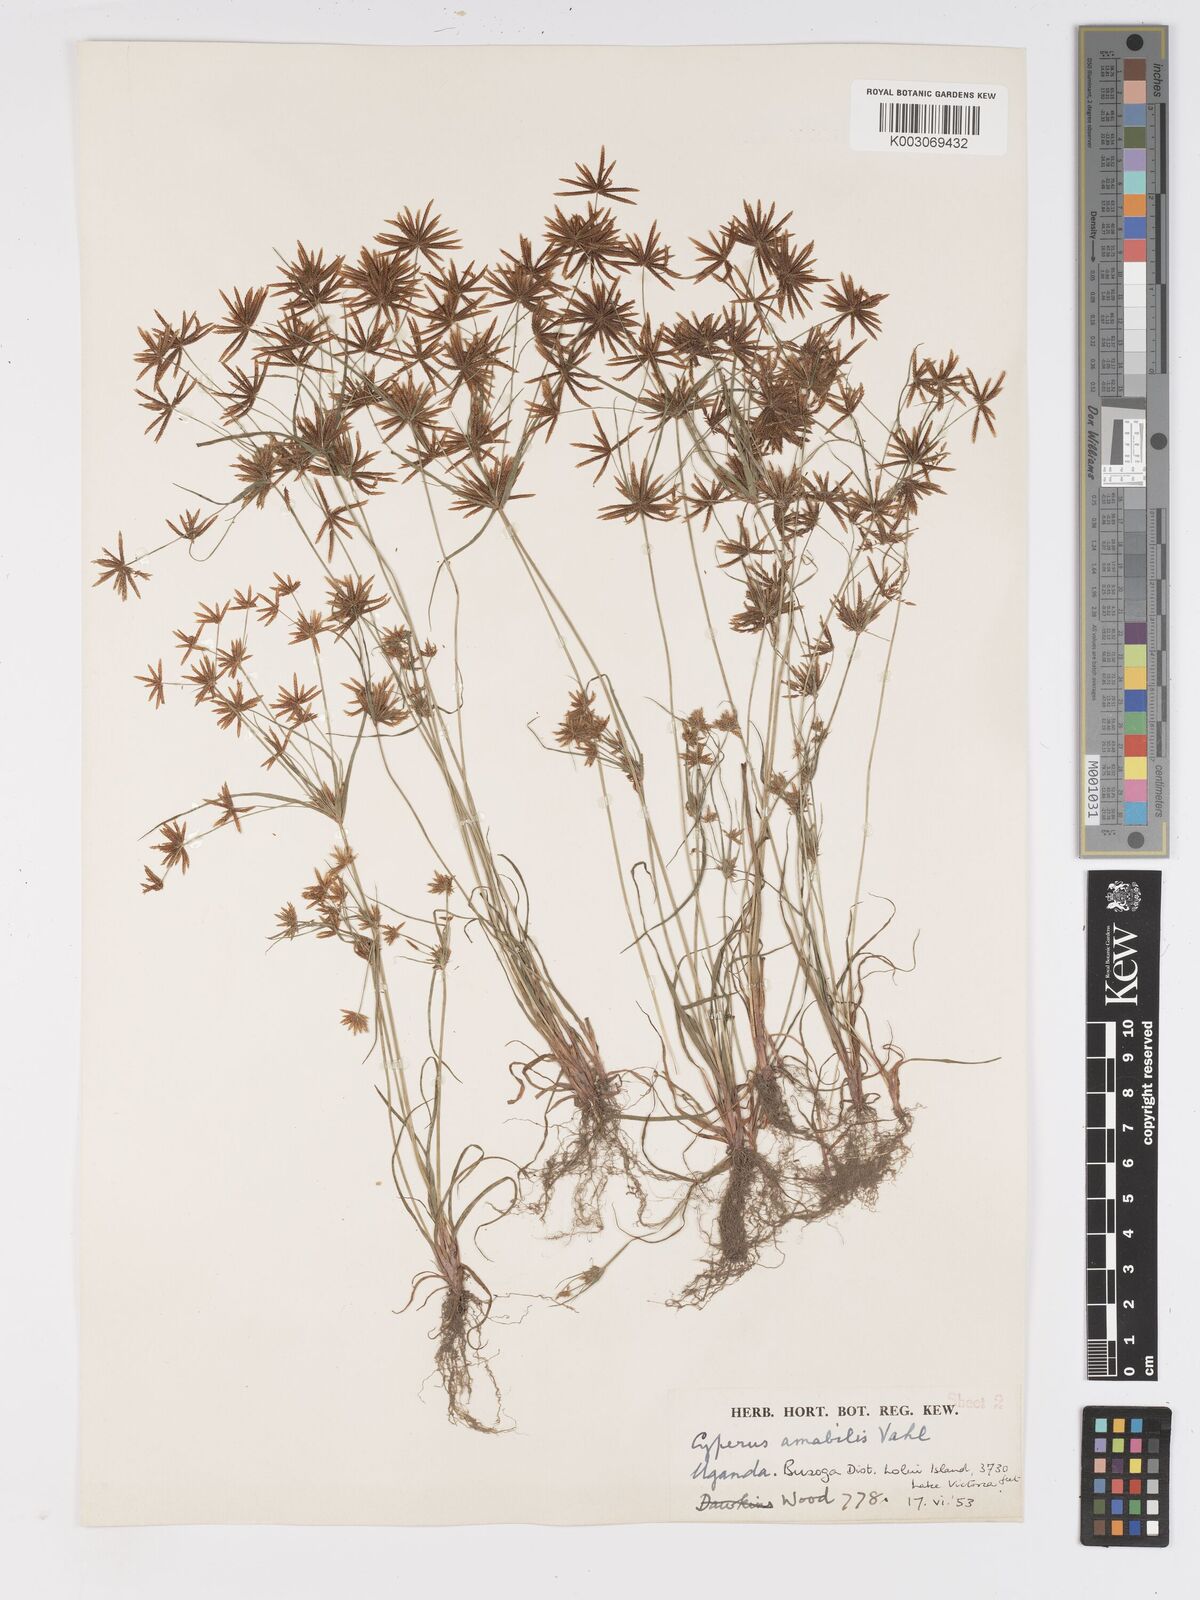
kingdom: Plantae
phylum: Tracheophyta
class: Liliopsida
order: Poales
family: Cyperaceae
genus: Cyperus
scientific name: Cyperus amabilis
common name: Foothill flat sedge
